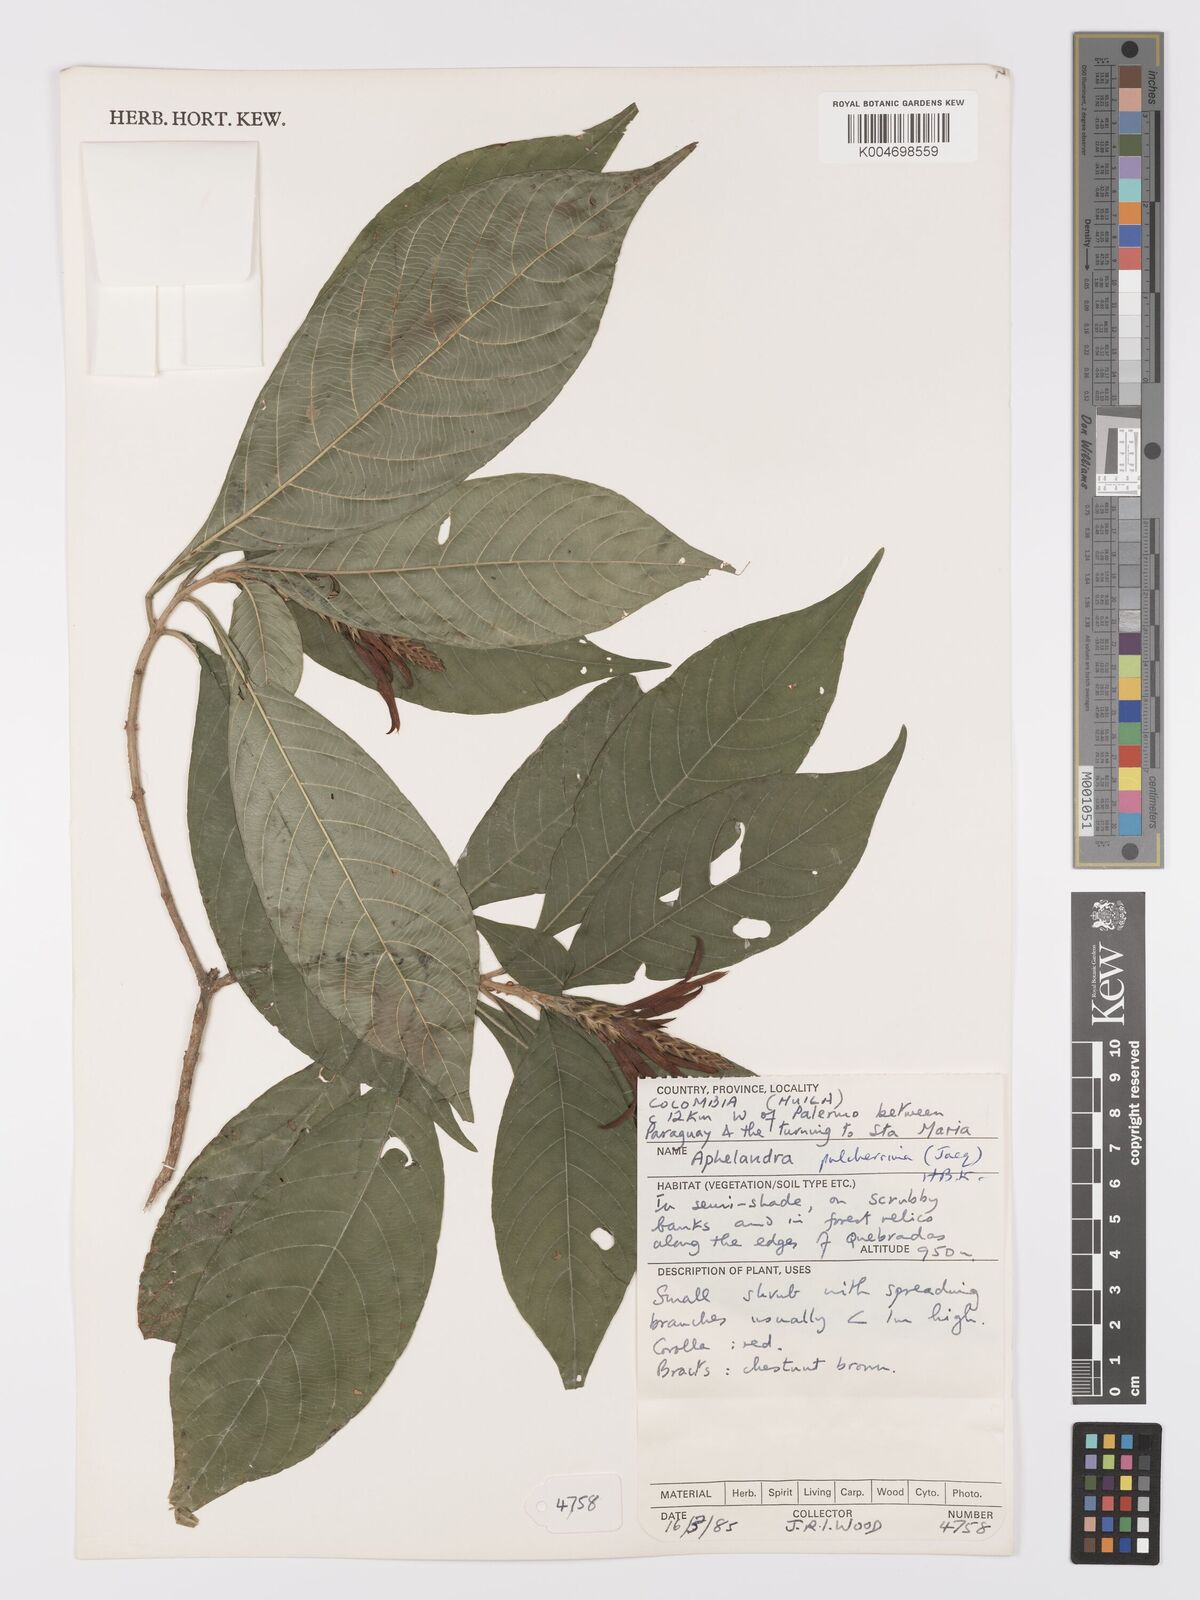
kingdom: Plantae
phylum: Tracheophyta
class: Magnoliopsida
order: Lamiales
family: Acanthaceae
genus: Aphelandra
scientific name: Aphelandra glabrata
